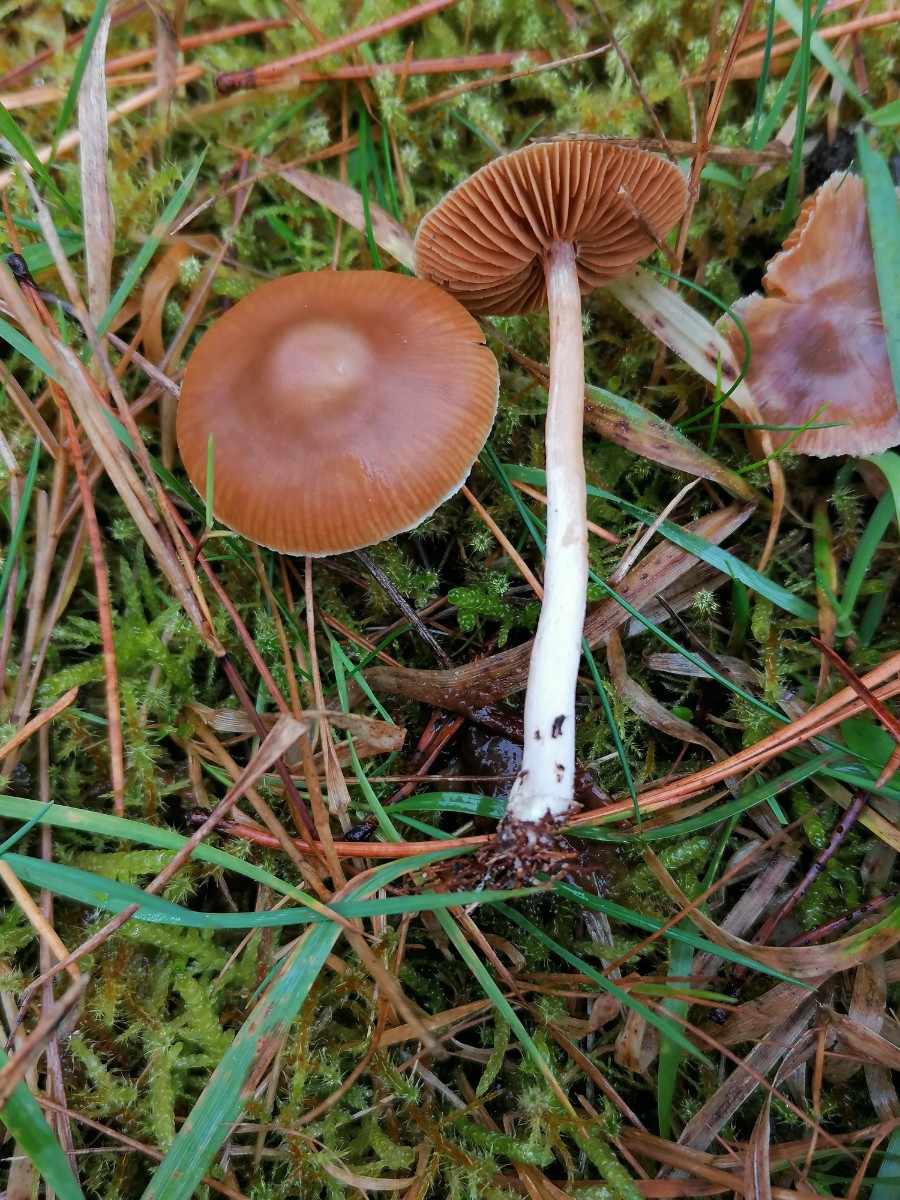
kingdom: Fungi
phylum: Basidiomycota
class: Agaricomycetes
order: Agaricales
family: Cortinariaceae
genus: Cortinarius
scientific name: Cortinarius
